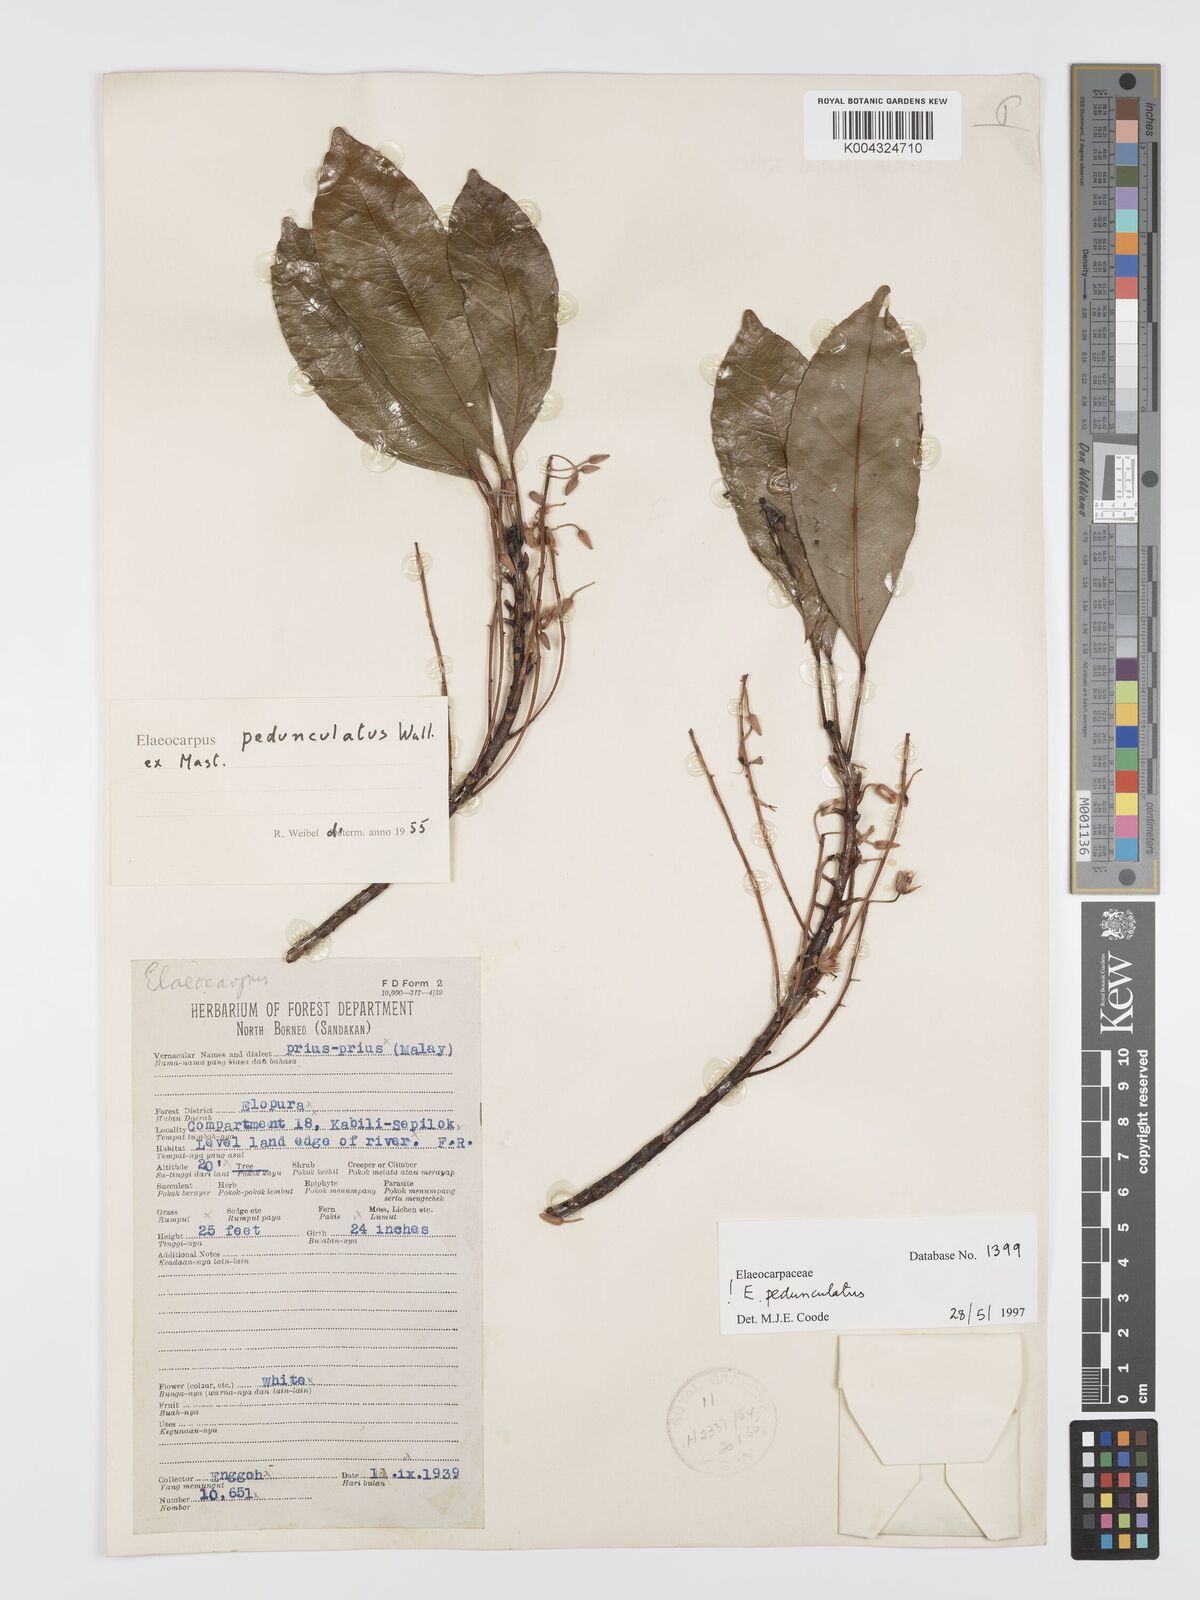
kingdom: Plantae
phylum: Tracheophyta
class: Magnoliopsida
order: Oxalidales
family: Elaeocarpaceae
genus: Elaeocarpus
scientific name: Elaeocarpus pedunculatus
